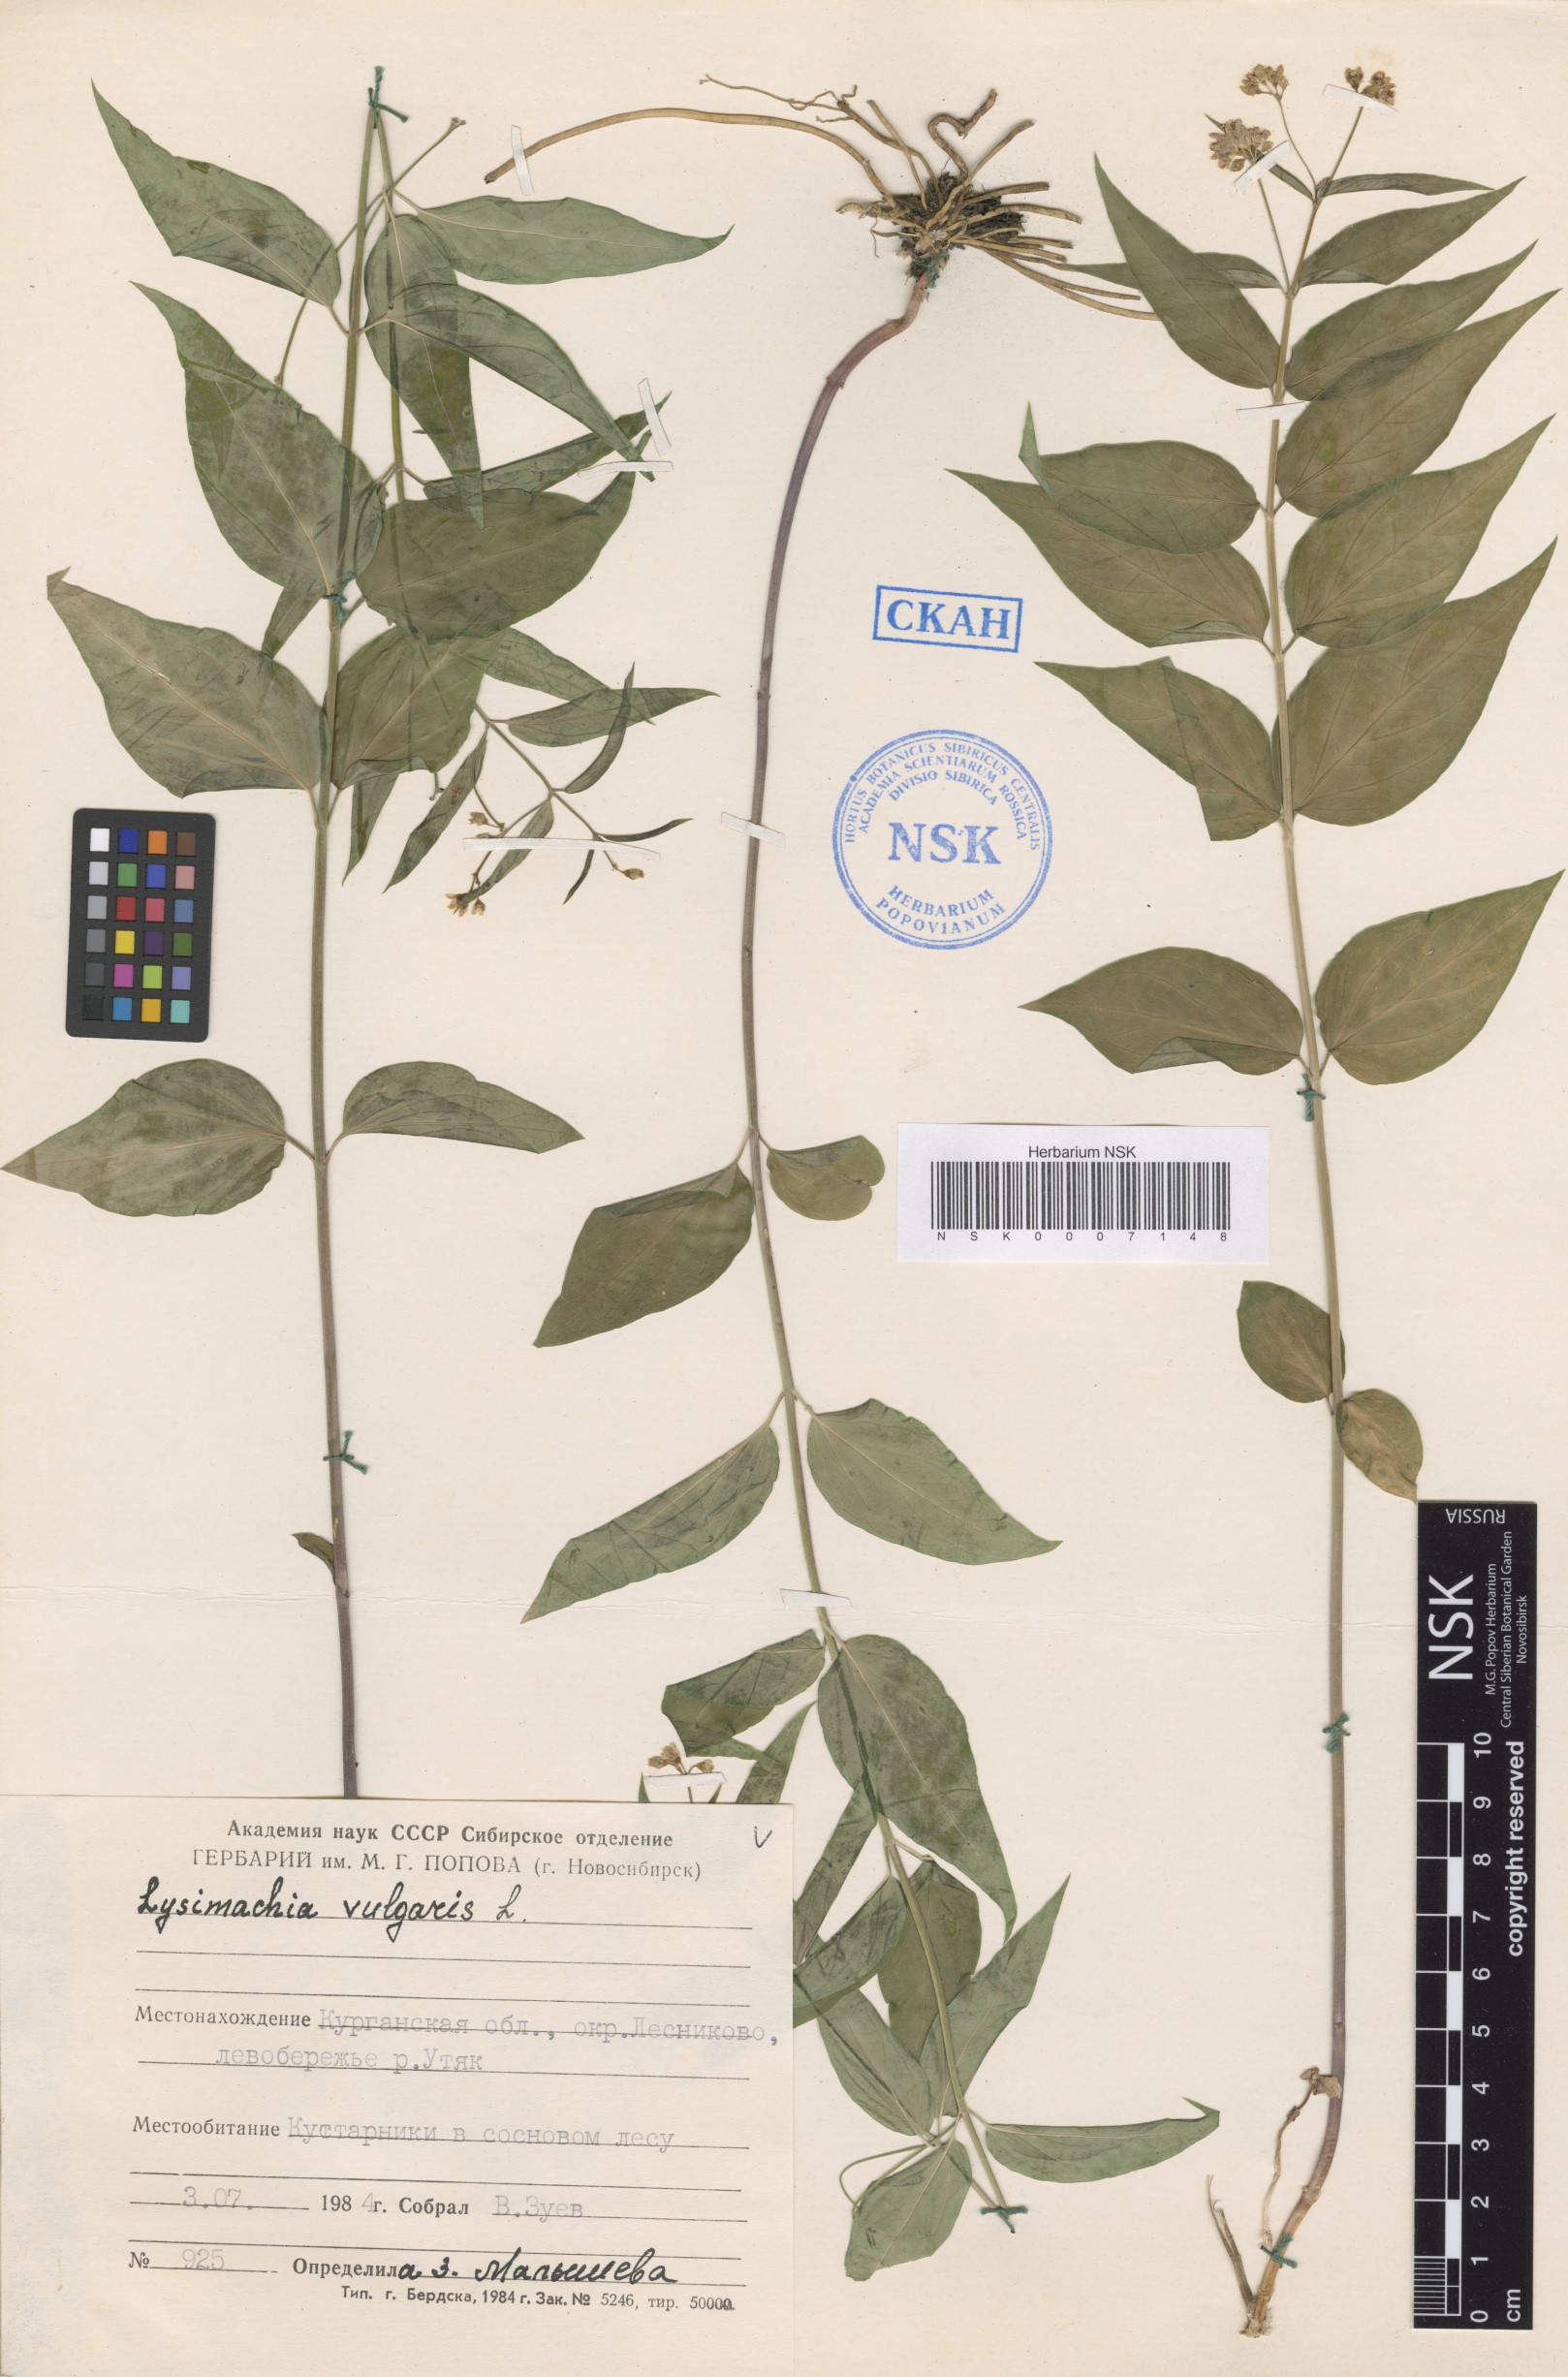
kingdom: Plantae
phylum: Tracheophyta
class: Magnoliopsida
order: Ericales
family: Primulaceae
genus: Lysimachia
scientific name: Lysimachia vulgaris
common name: Yellow loosestrife
